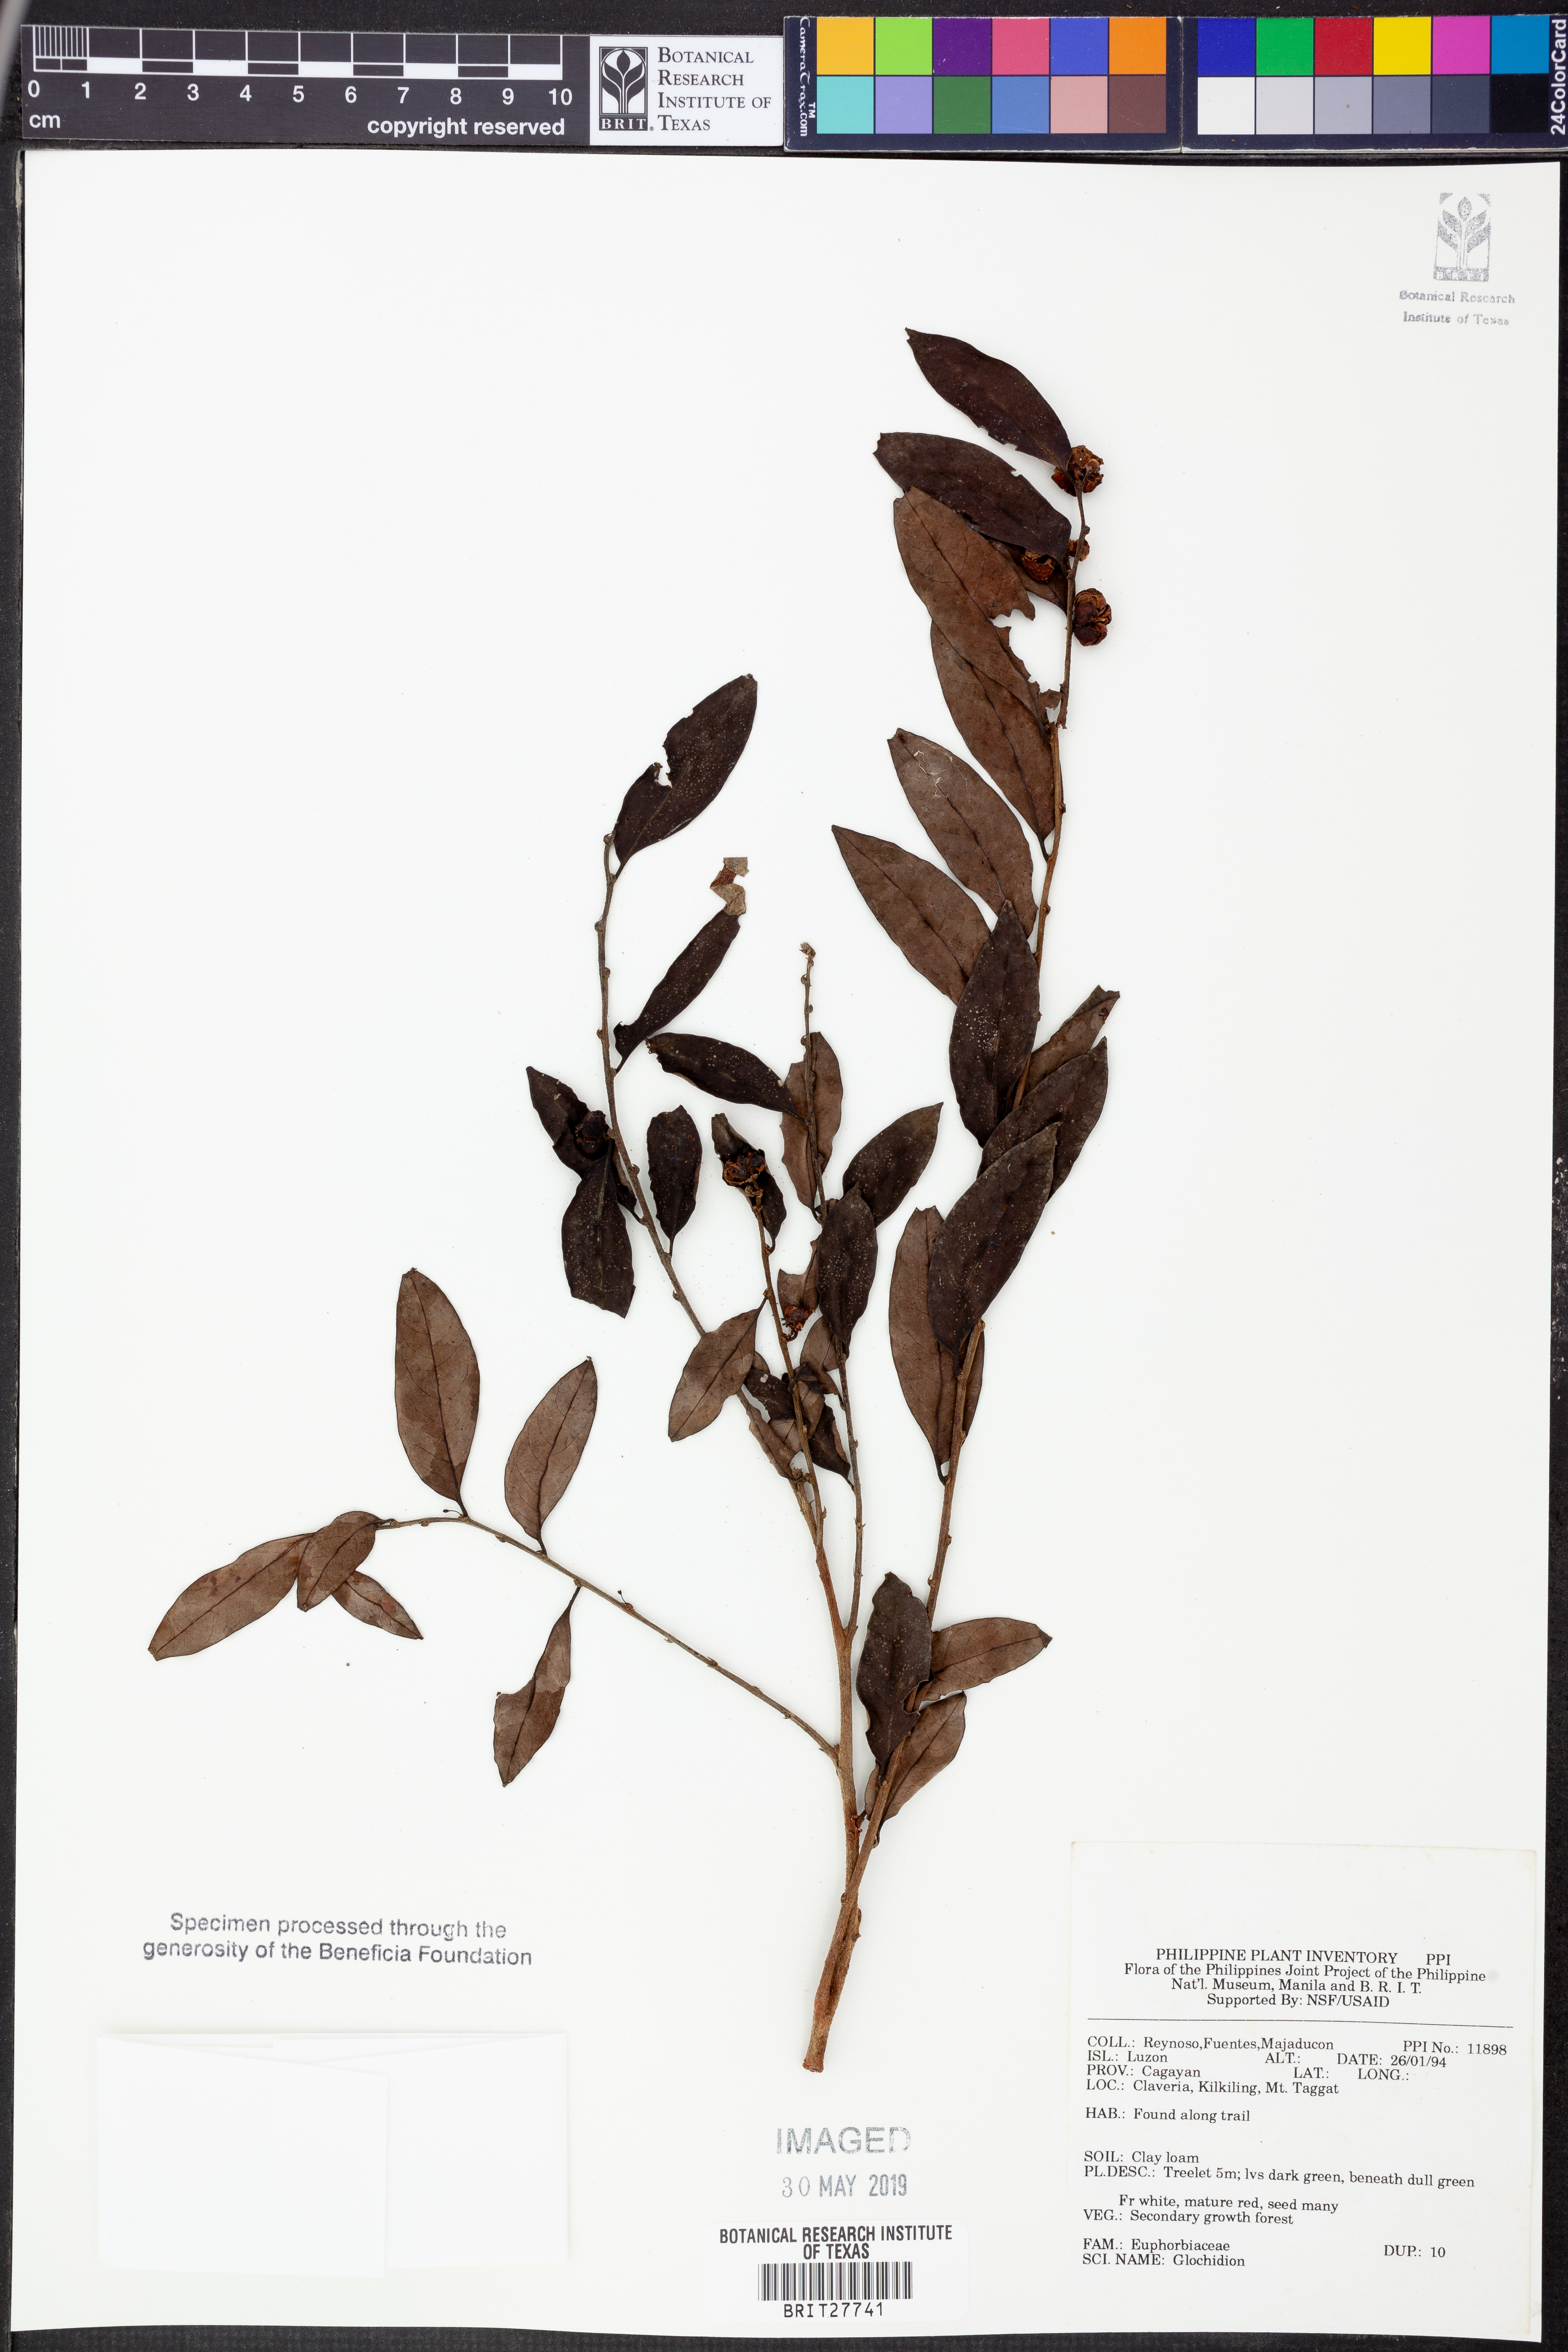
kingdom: Plantae
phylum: Tracheophyta
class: Magnoliopsida
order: Malpighiales
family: Phyllanthaceae
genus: Glochidion
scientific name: Glochidion
